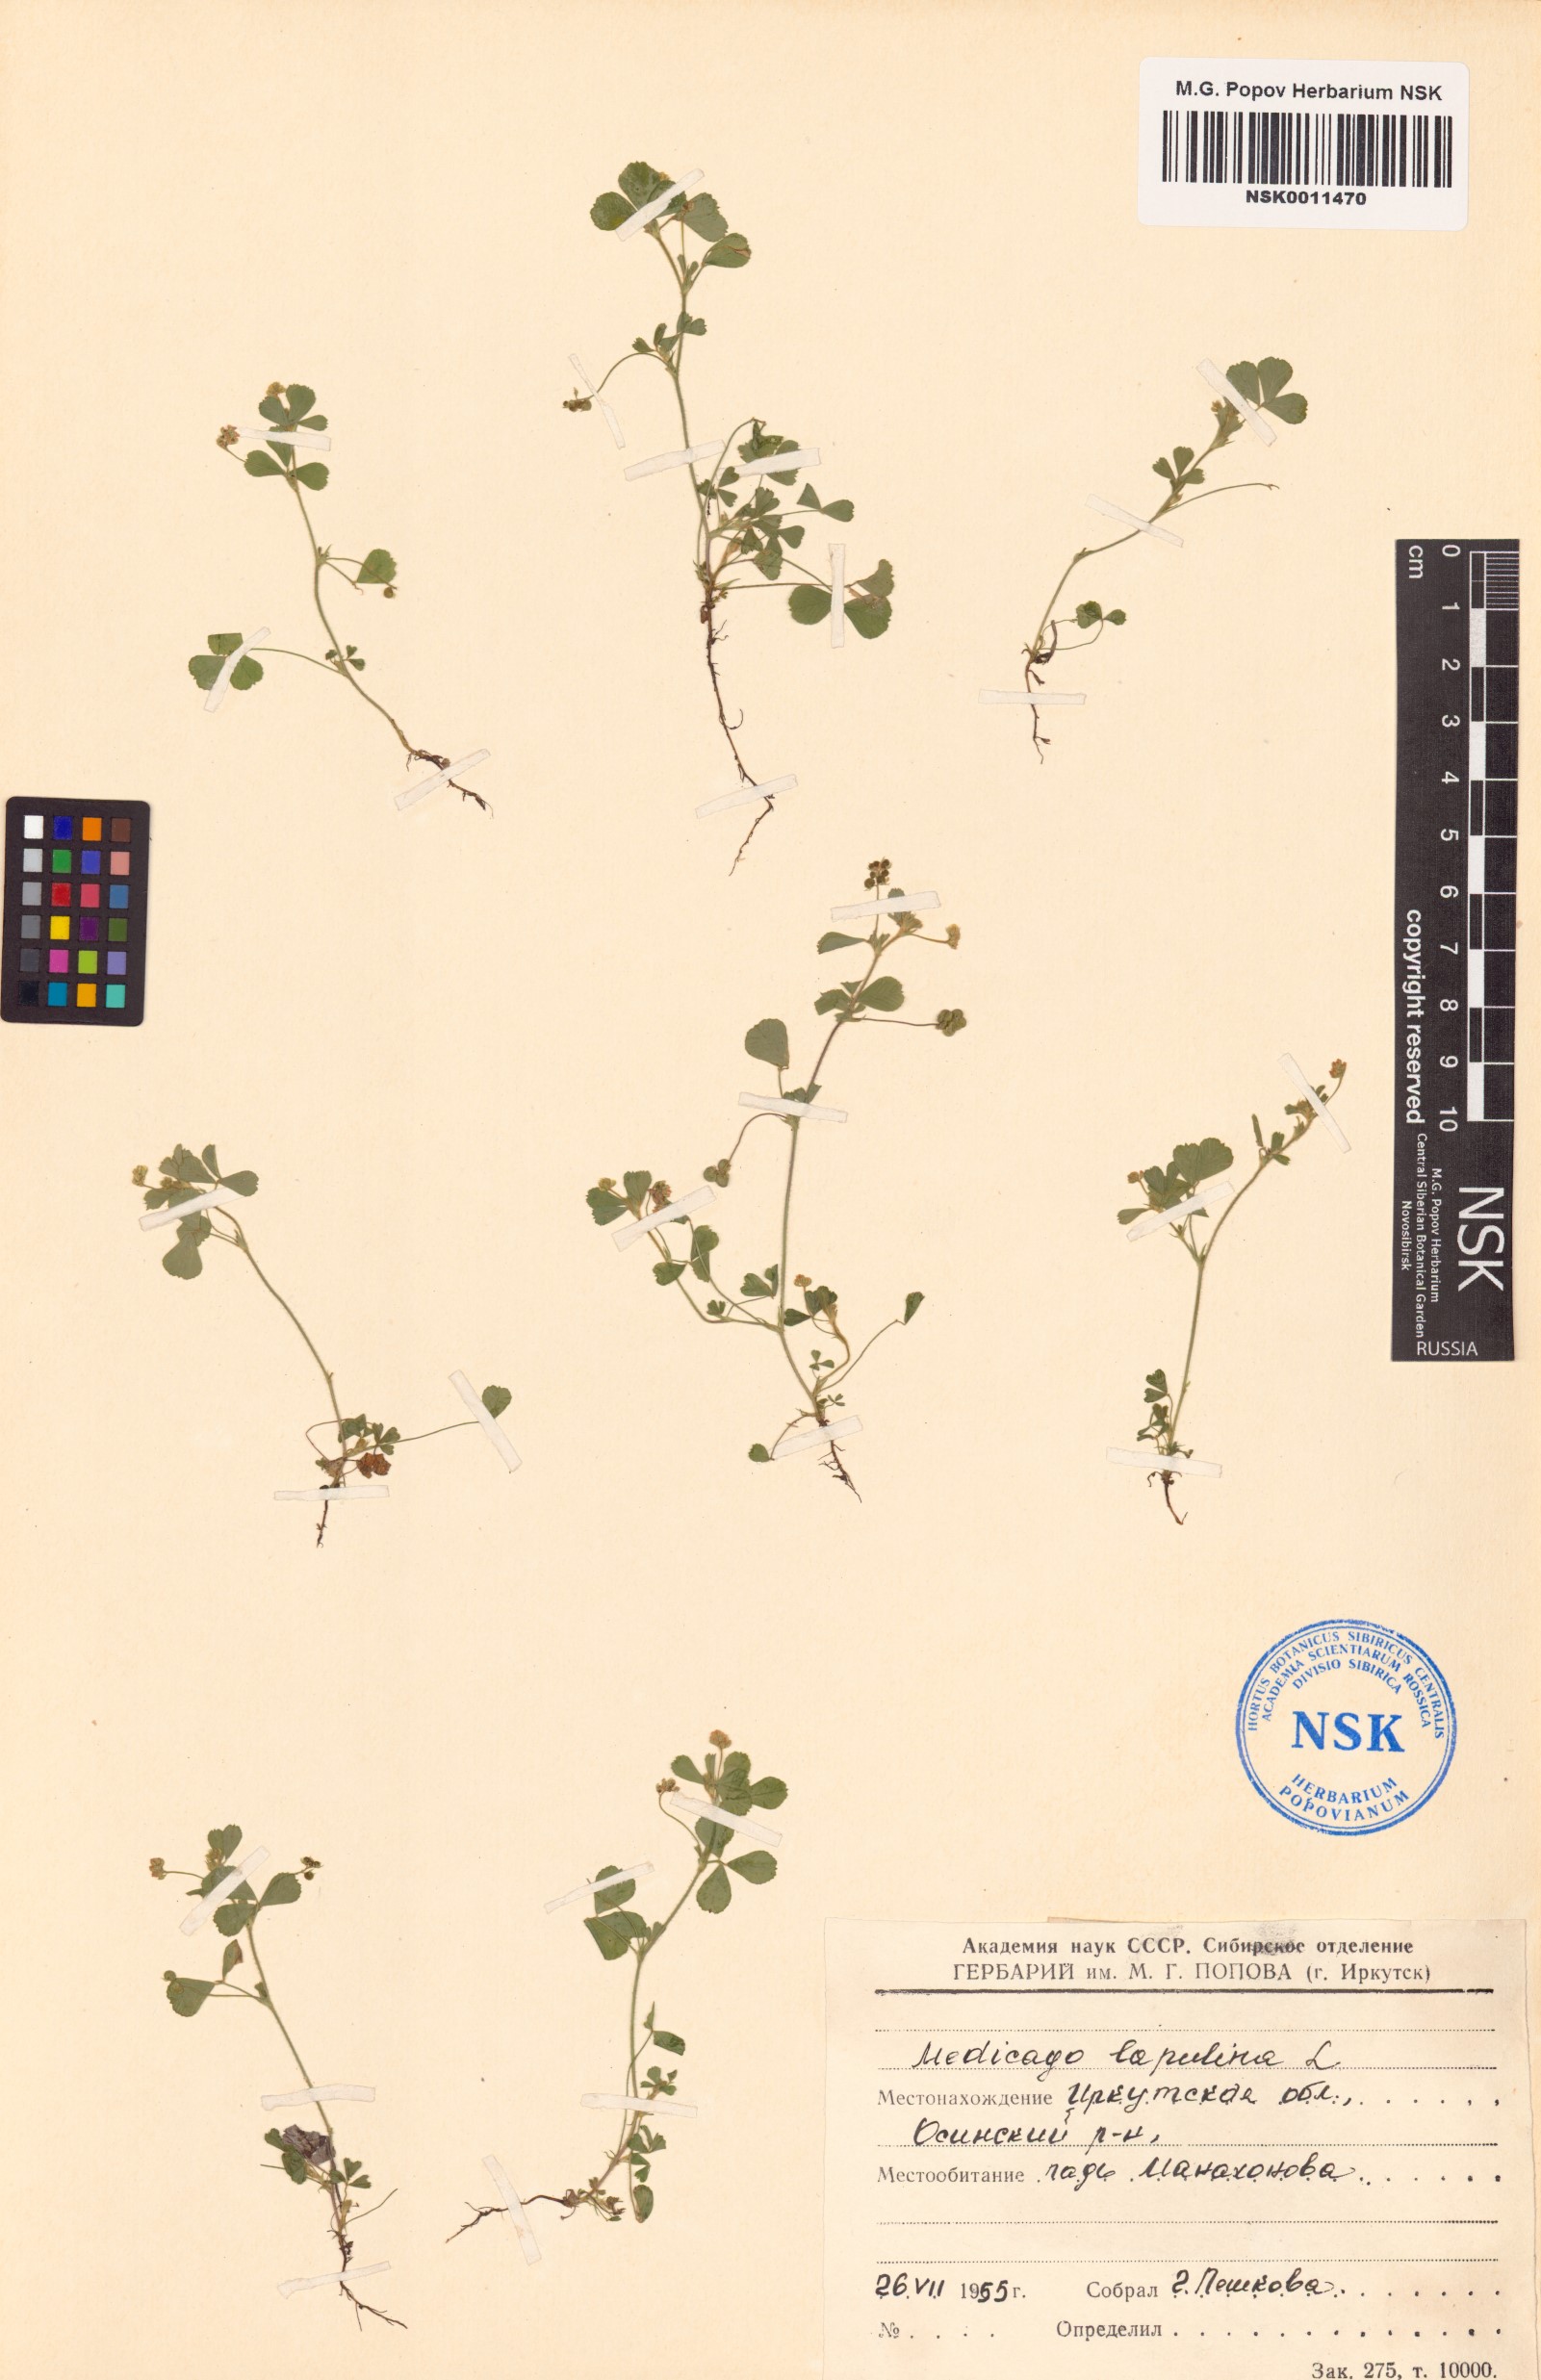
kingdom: Plantae
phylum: Tracheophyta
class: Magnoliopsida
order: Fabales
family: Fabaceae
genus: Medicago
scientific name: Medicago lupulina
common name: Black medick
